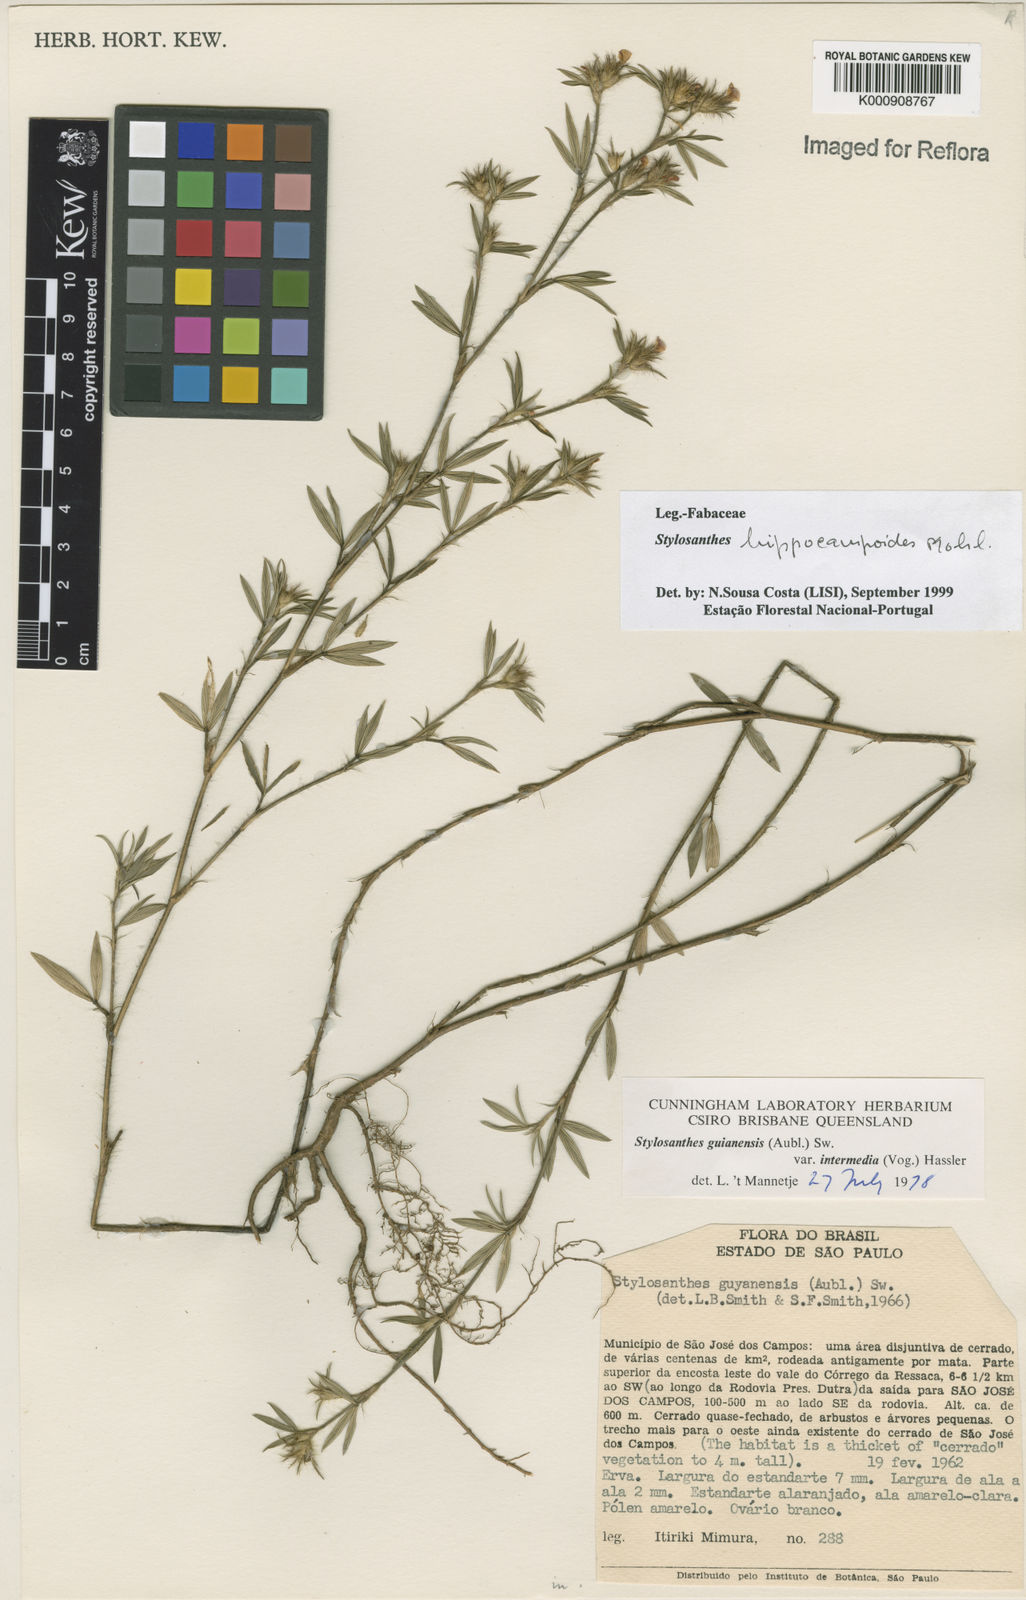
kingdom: Plantae
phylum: Tracheophyta
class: Magnoliopsida
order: Fabales
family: Fabaceae
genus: Stylosanthes
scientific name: Stylosanthes hippocampoides
